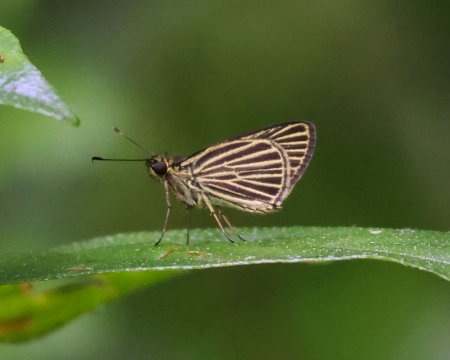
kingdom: Animalia
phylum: Arthropoda
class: Insecta
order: Lepidoptera
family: Hesperiidae
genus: Parphorus
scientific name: Parphorus storax
